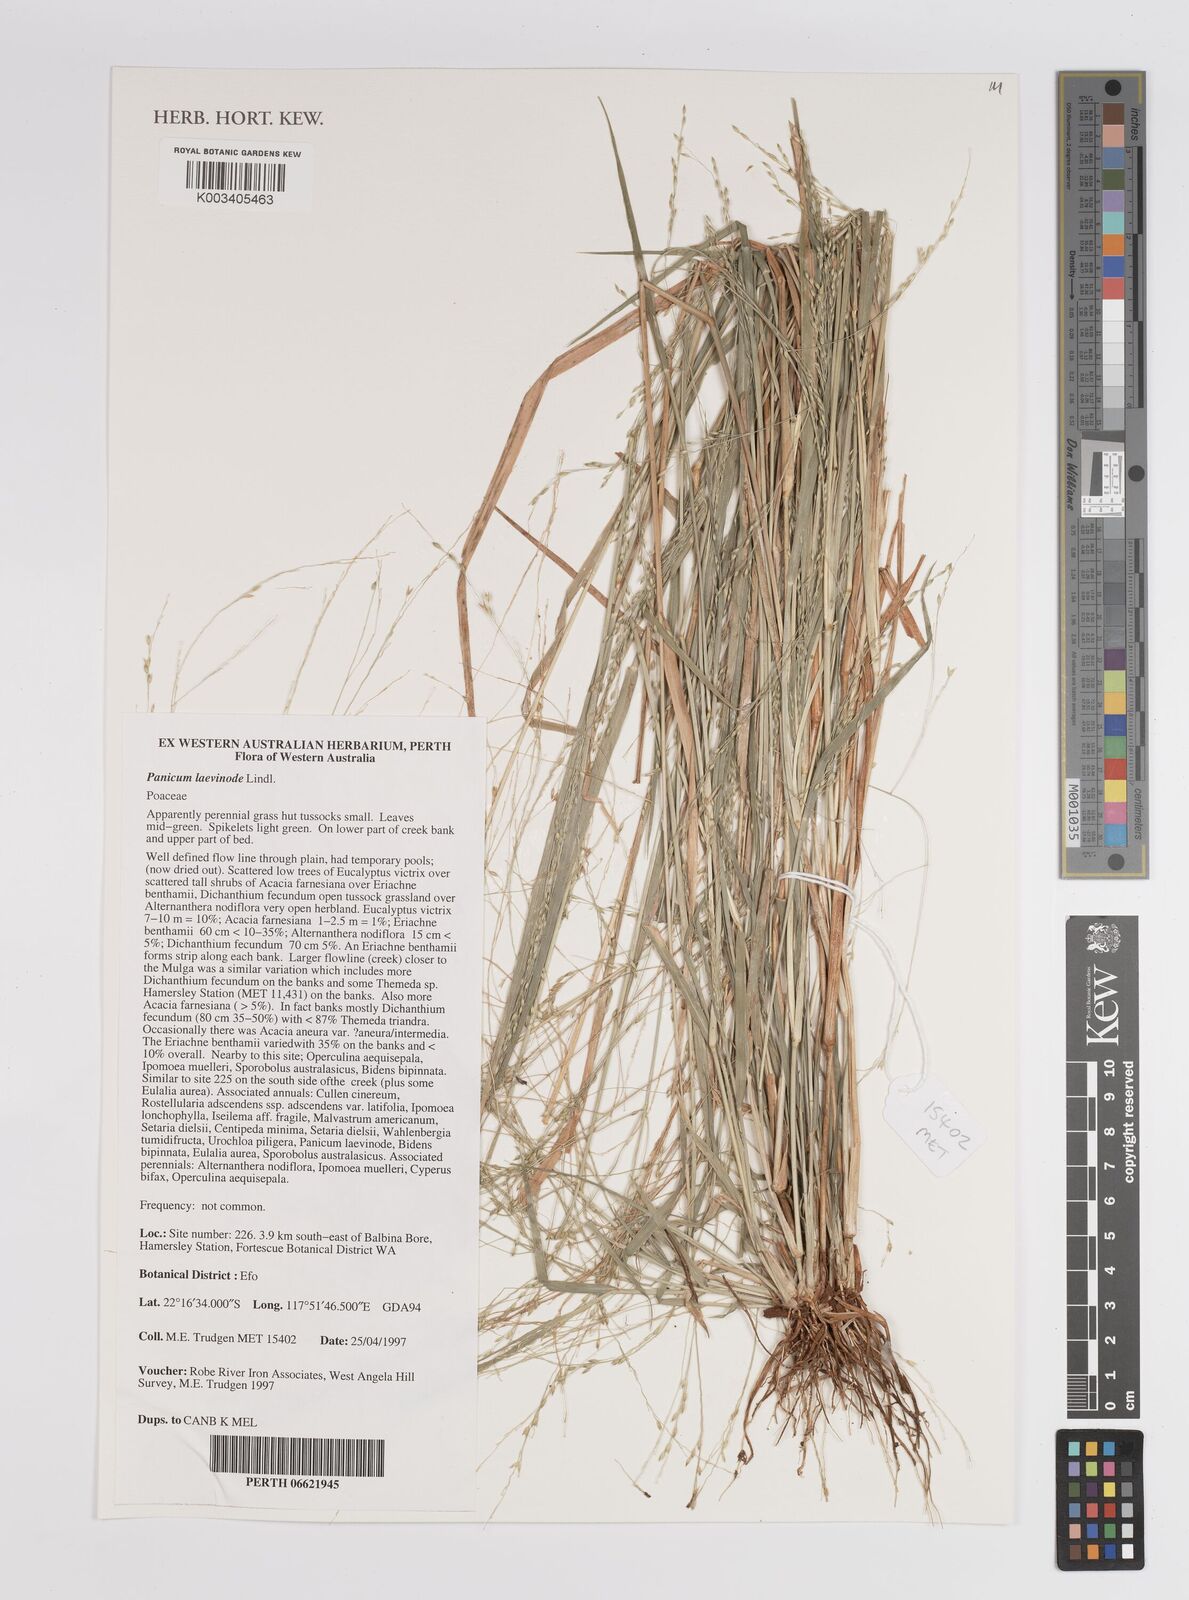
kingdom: Plantae
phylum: Tracheophyta
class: Liliopsida
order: Poales
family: Poaceae
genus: Panicum
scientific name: Panicum laevinode
